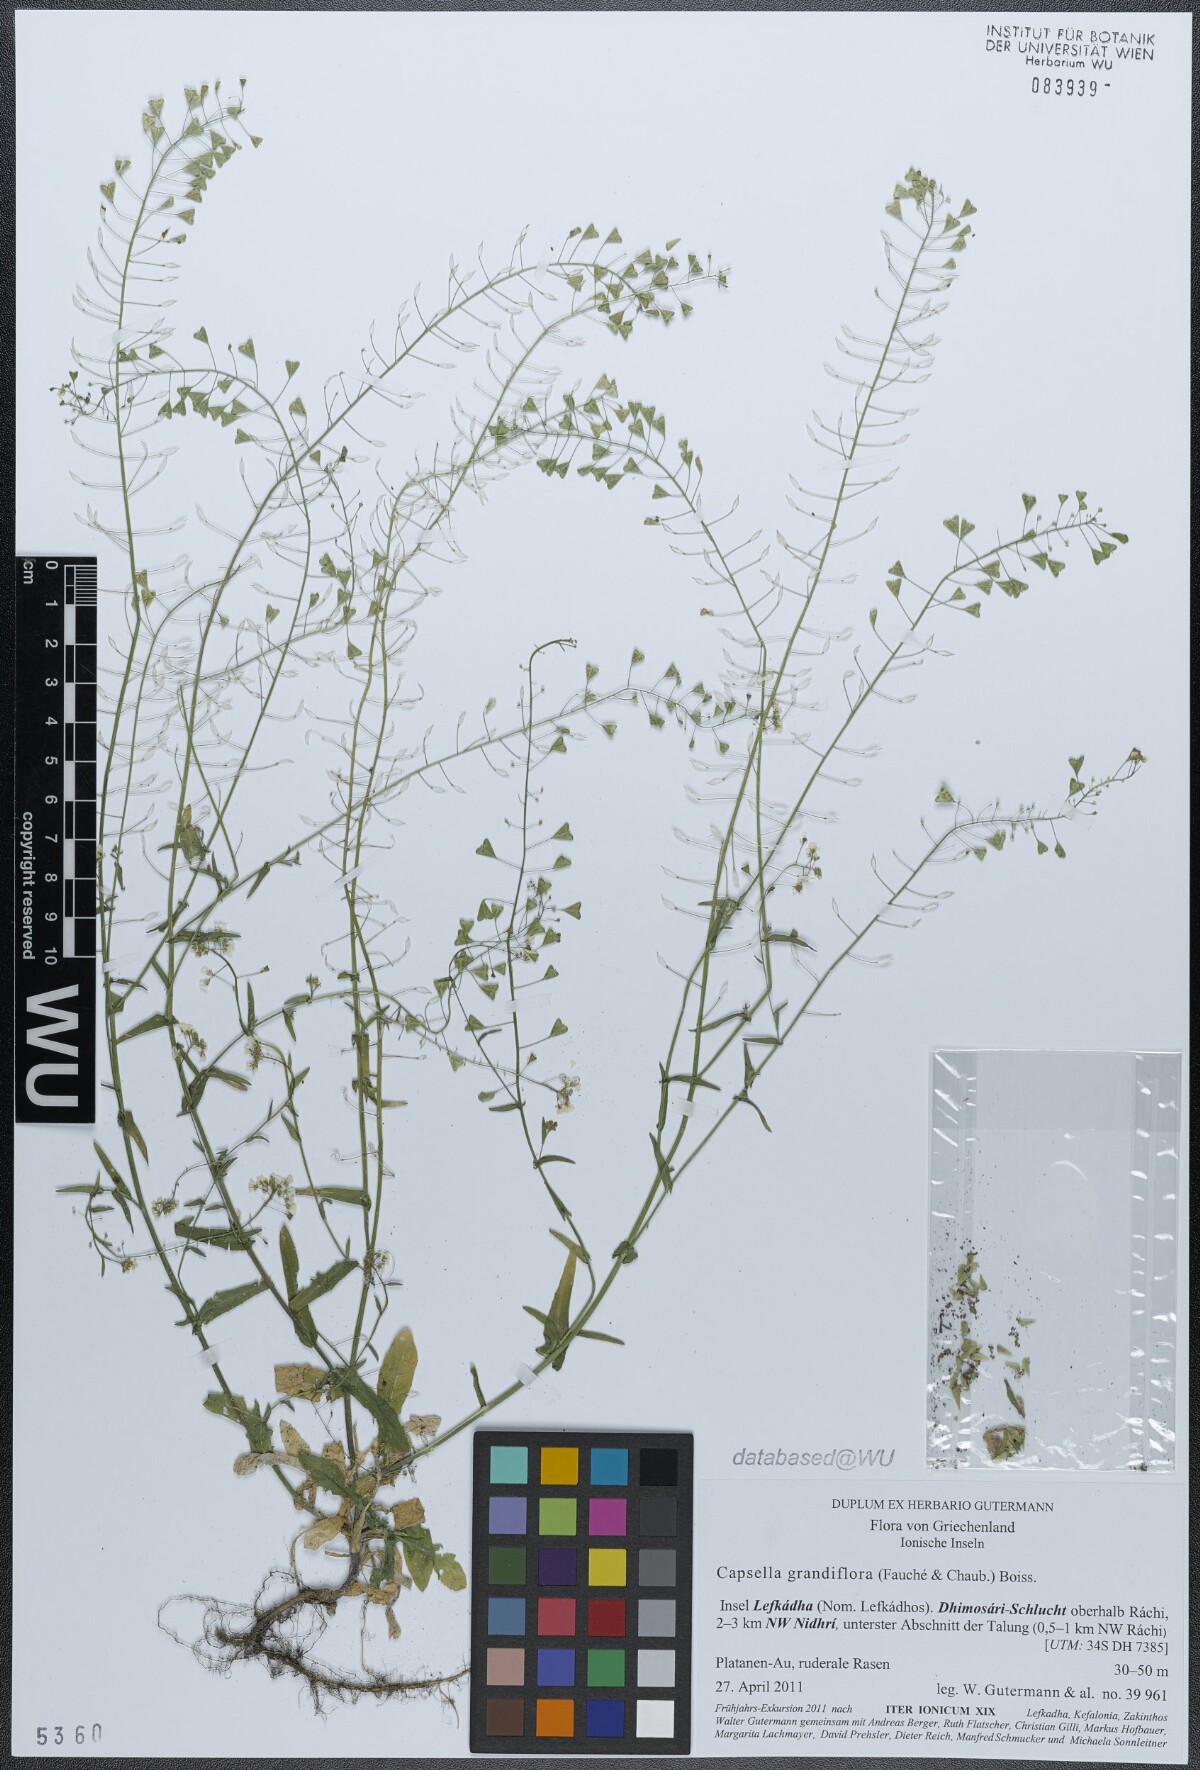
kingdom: Plantae
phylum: Tracheophyta
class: Magnoliopsida
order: Brassicales
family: Brassicaceae
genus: Capsella
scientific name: Capsella grandiflora
